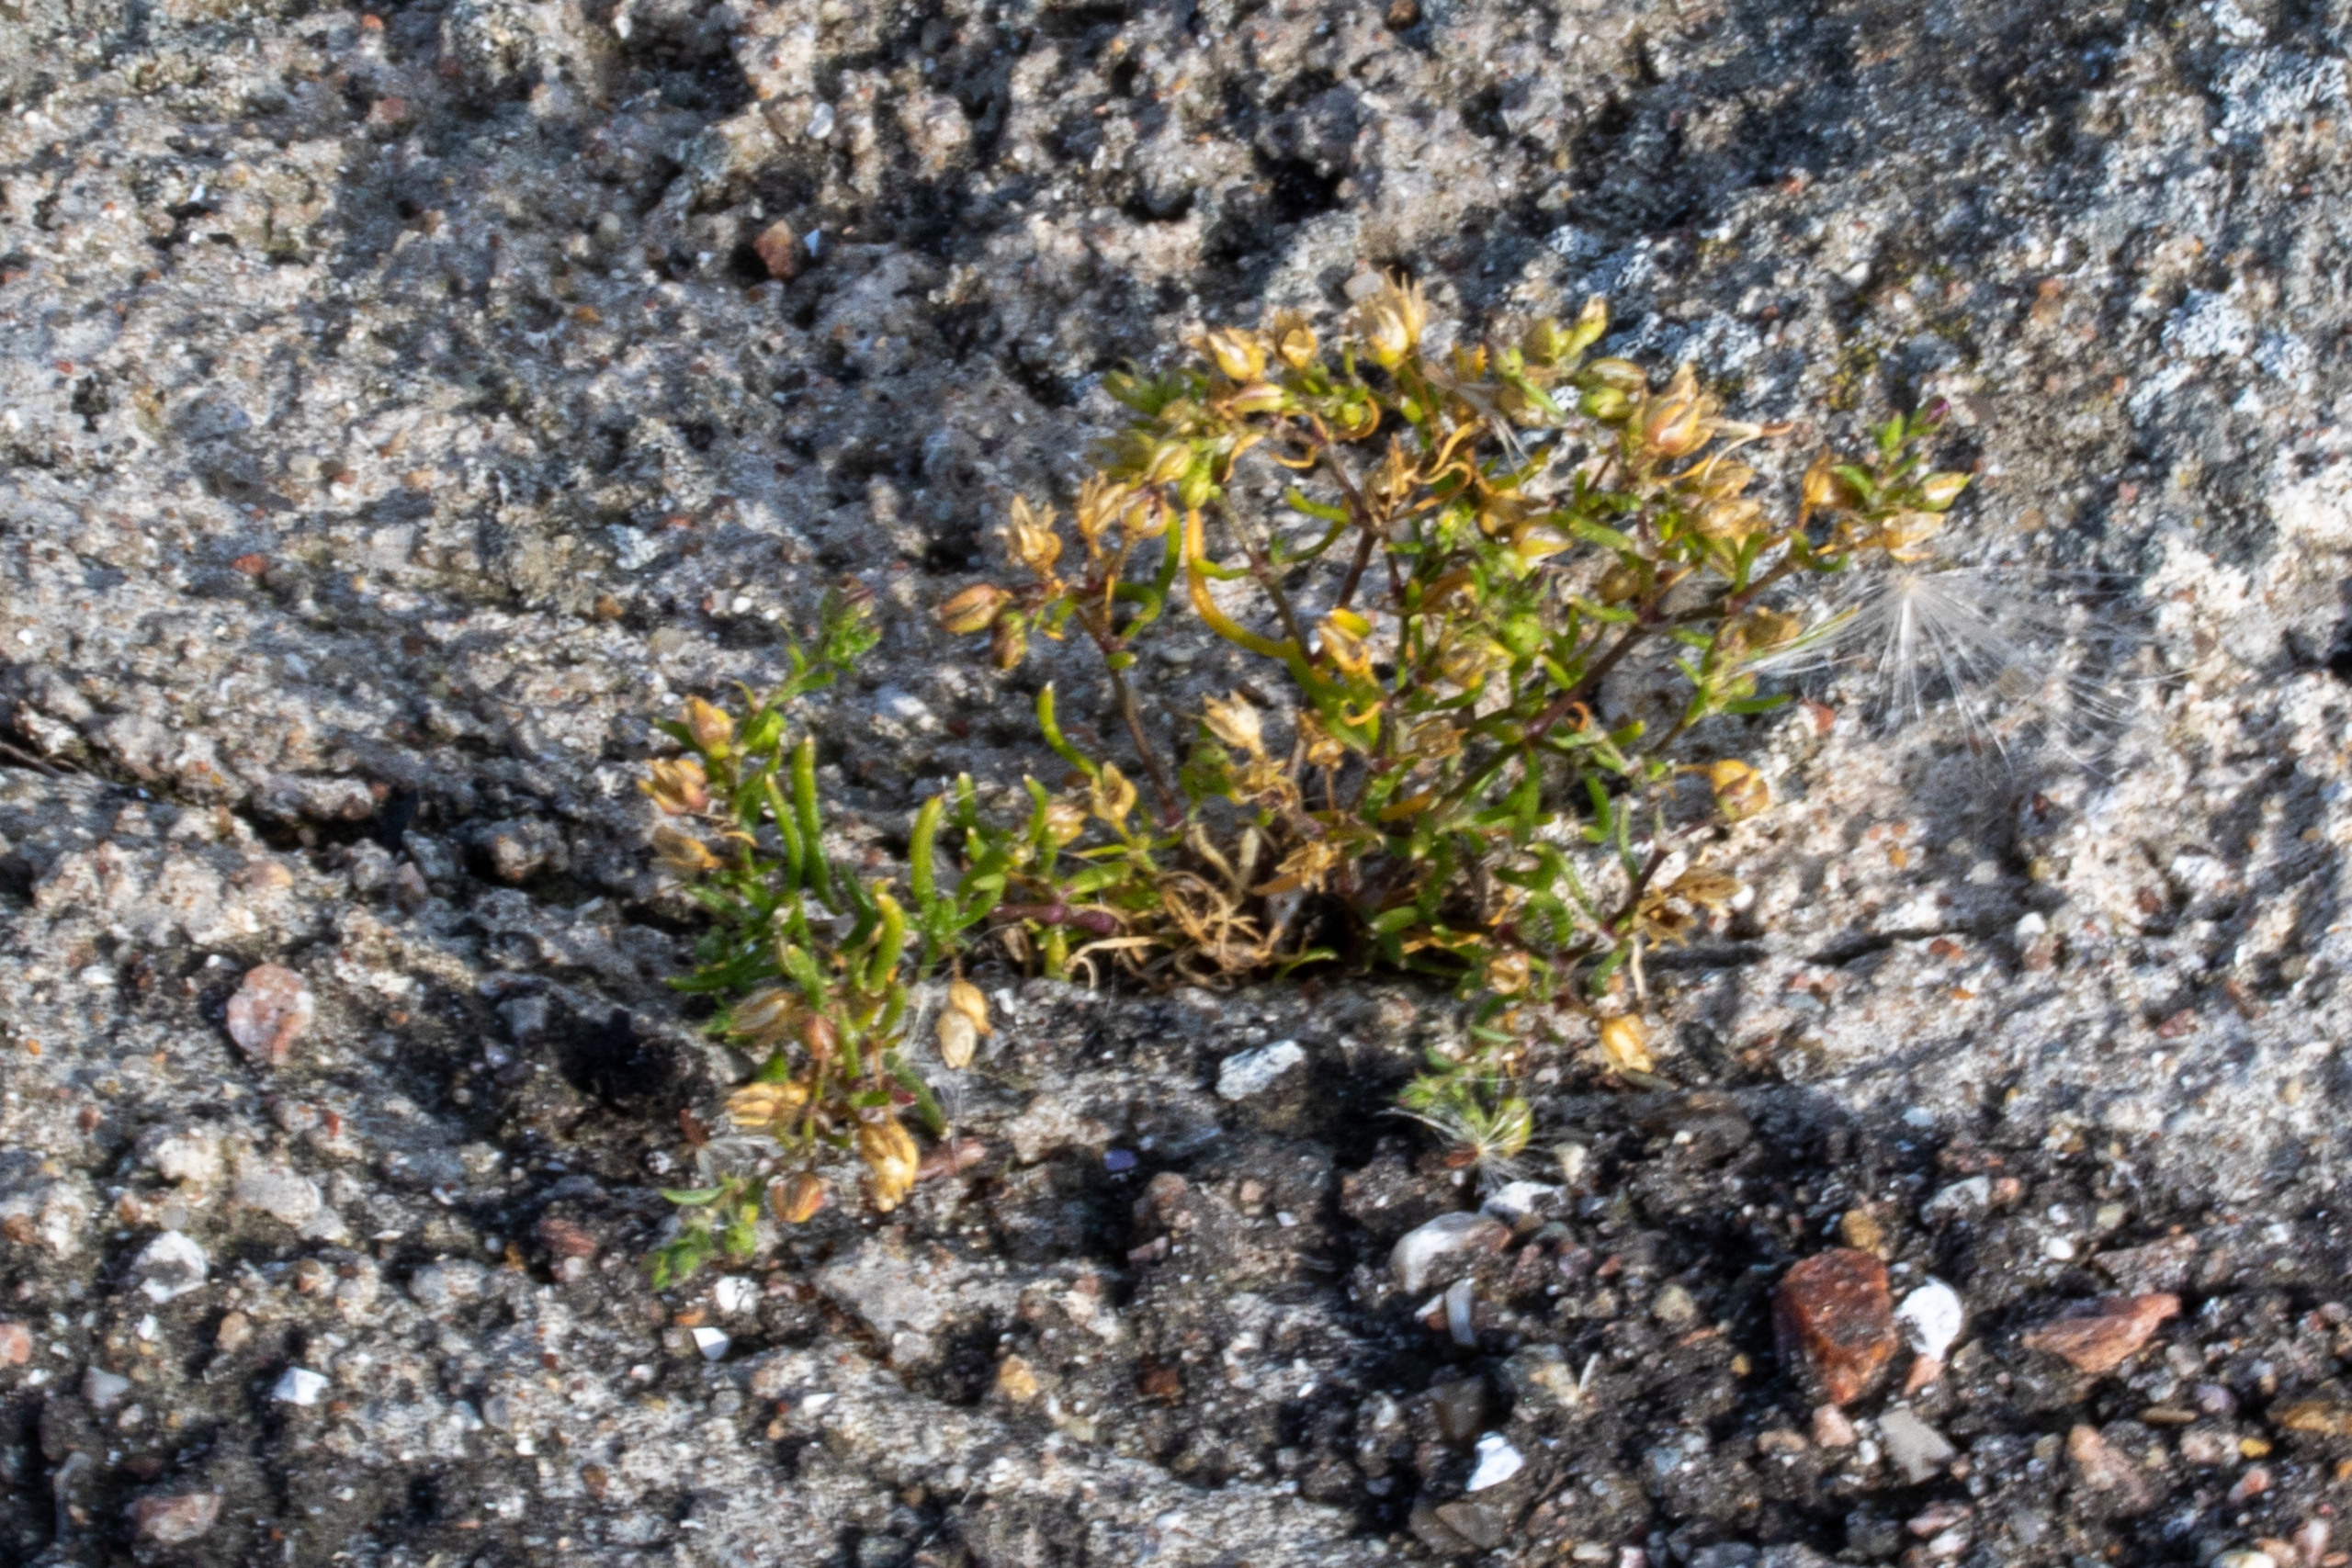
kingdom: Plantae
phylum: Tracheophyta
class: Magnoliopsida
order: Caryophyllales
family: Caryophyllaceae
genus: Spergularia
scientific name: Spergularia marina
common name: Kødet hindeknæ
